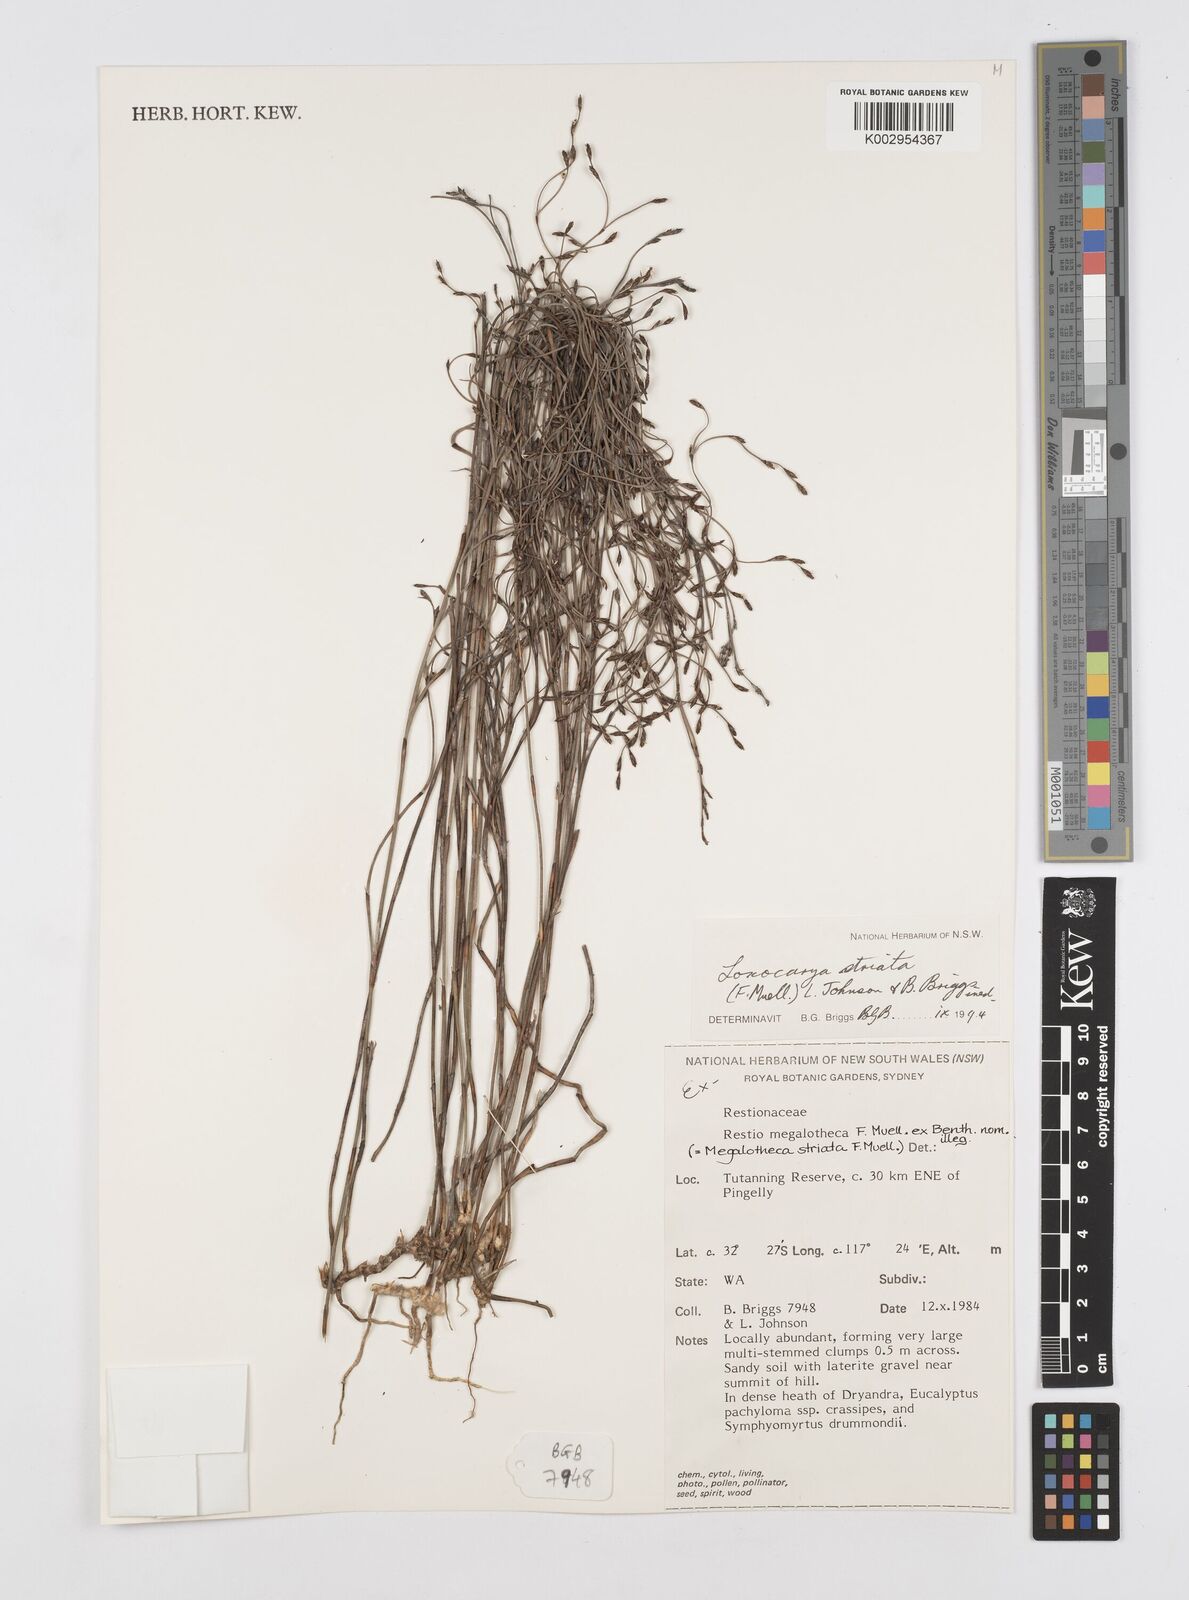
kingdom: Plantae
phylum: Tracheophyta
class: Liliopsida
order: Poales
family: Restionaceae
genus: Loxocarya
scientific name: Loxocarya striata
